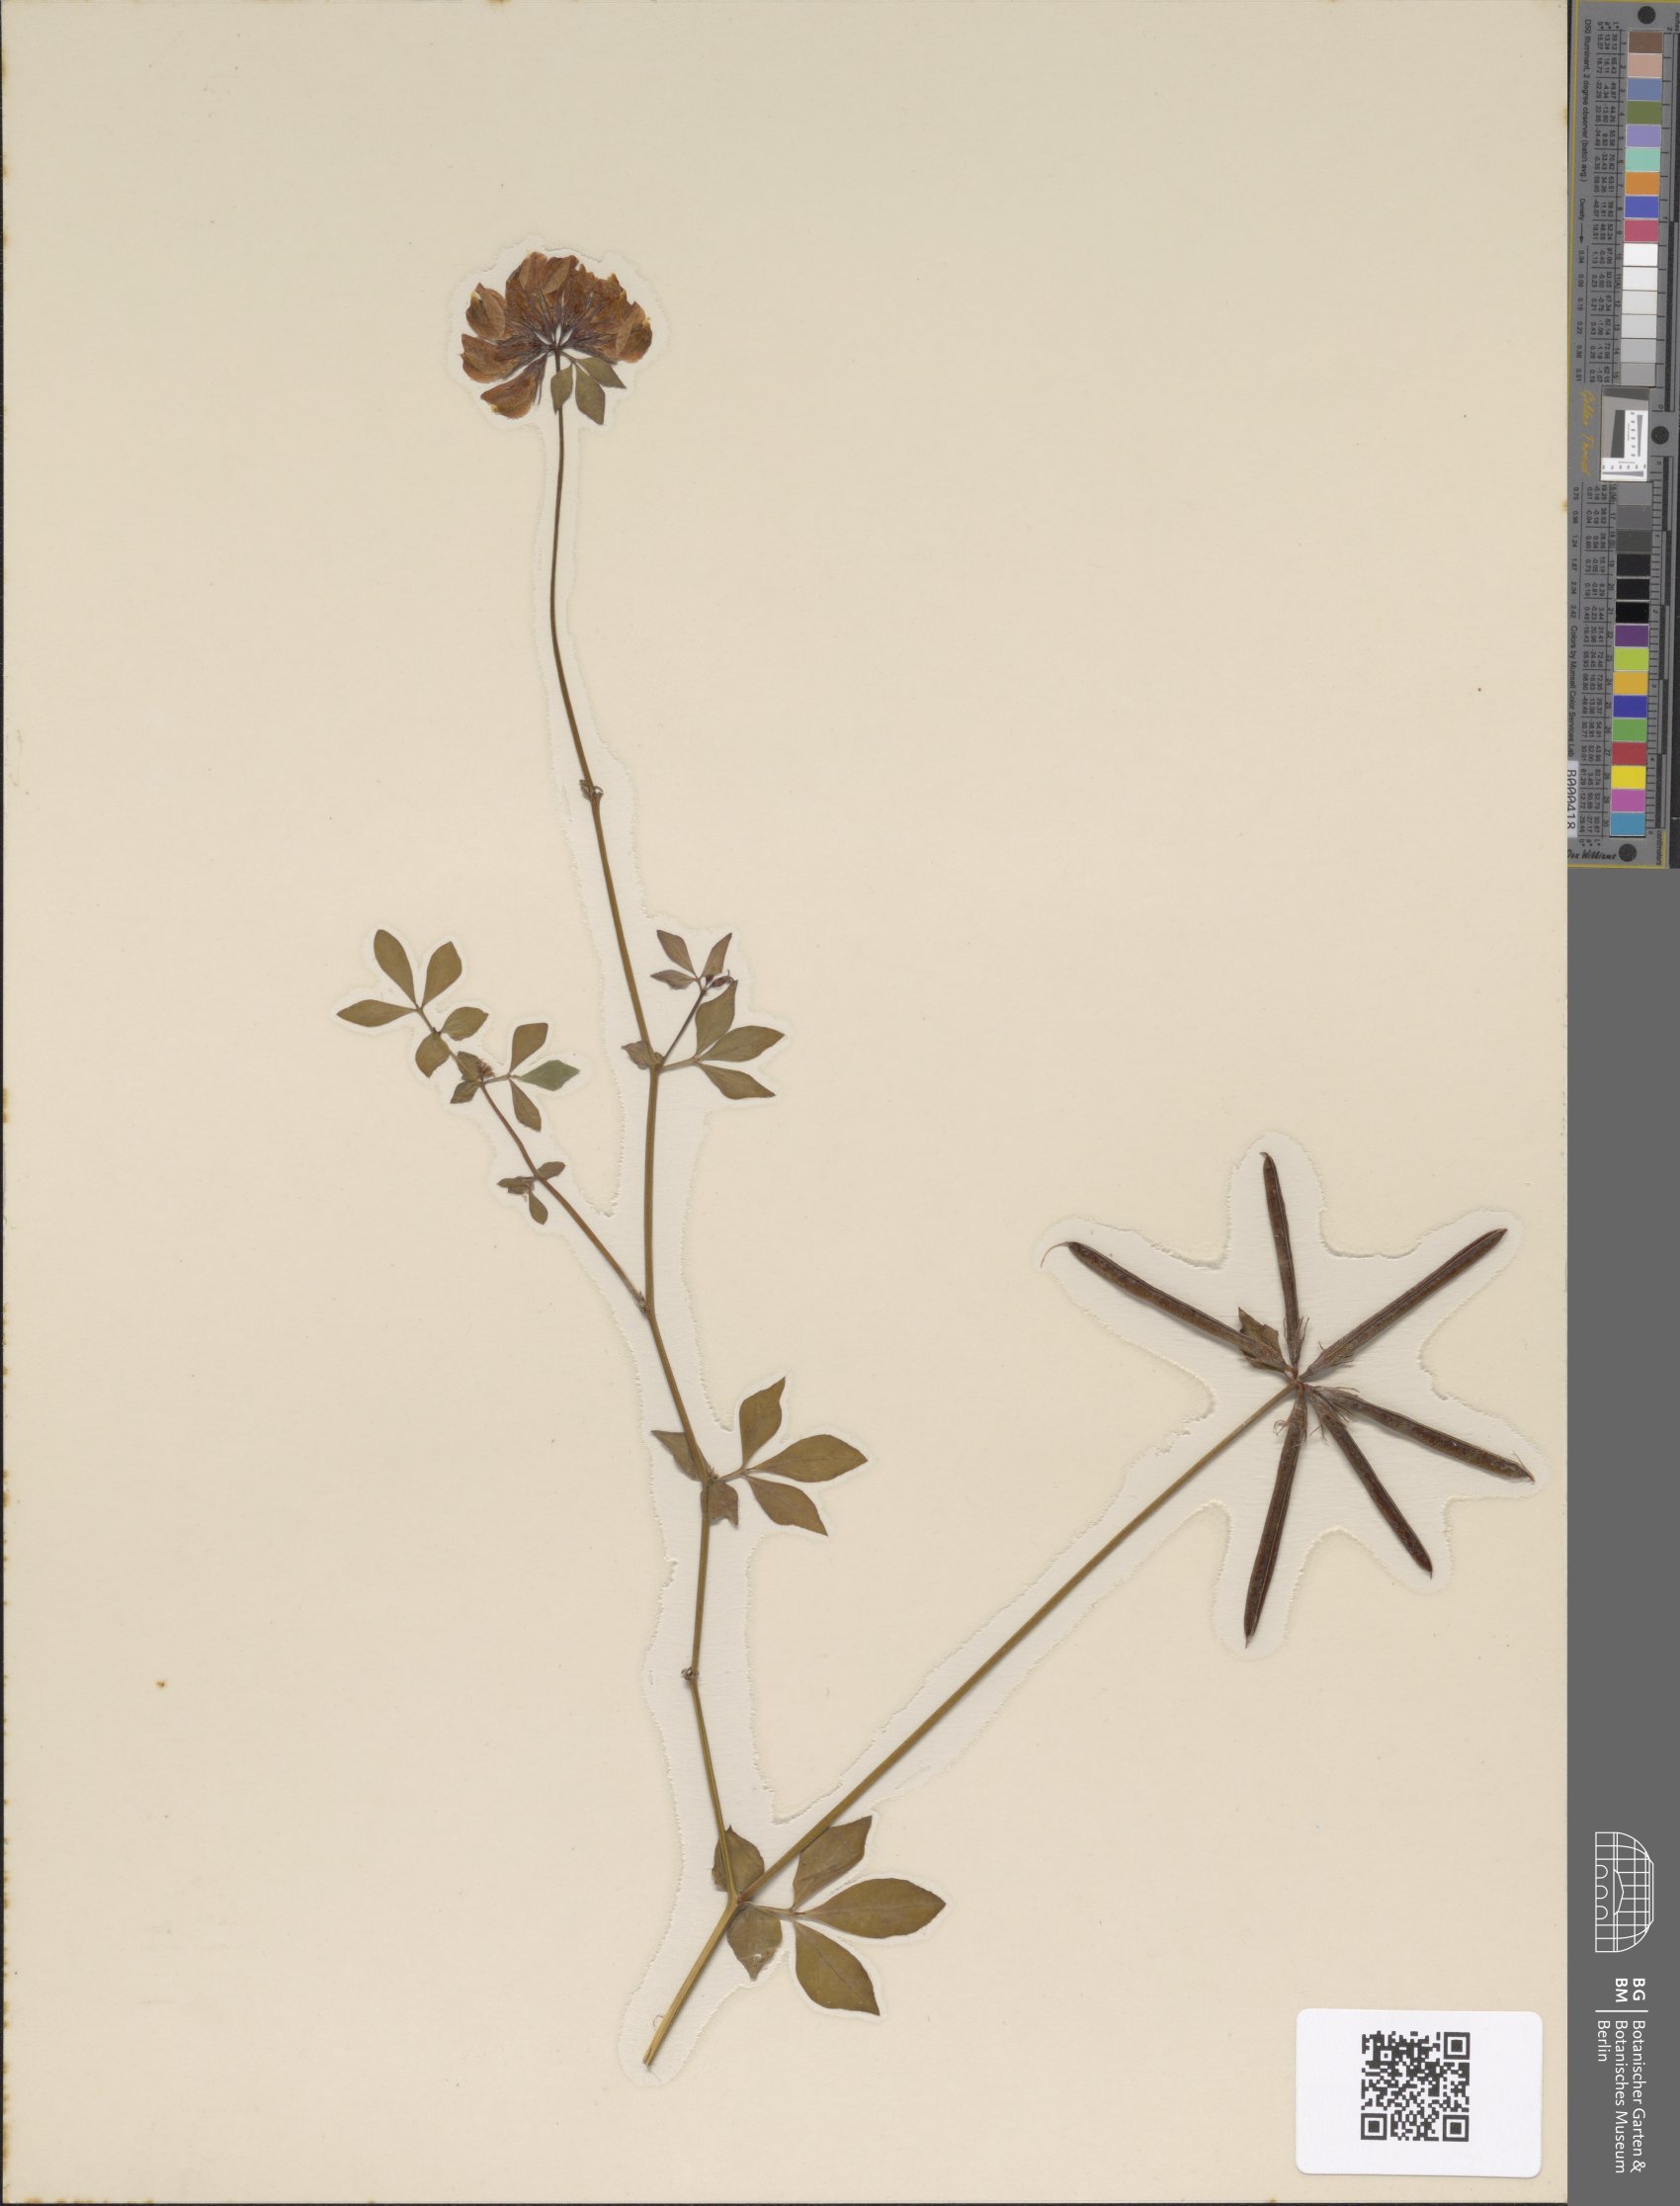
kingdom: Plantae
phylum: Tracheophyta
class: Magnoliopsida
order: Fabales
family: Fabaceae
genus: Lotus
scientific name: Lotus pedunculatus
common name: Greater birdsfoot-trefoil
